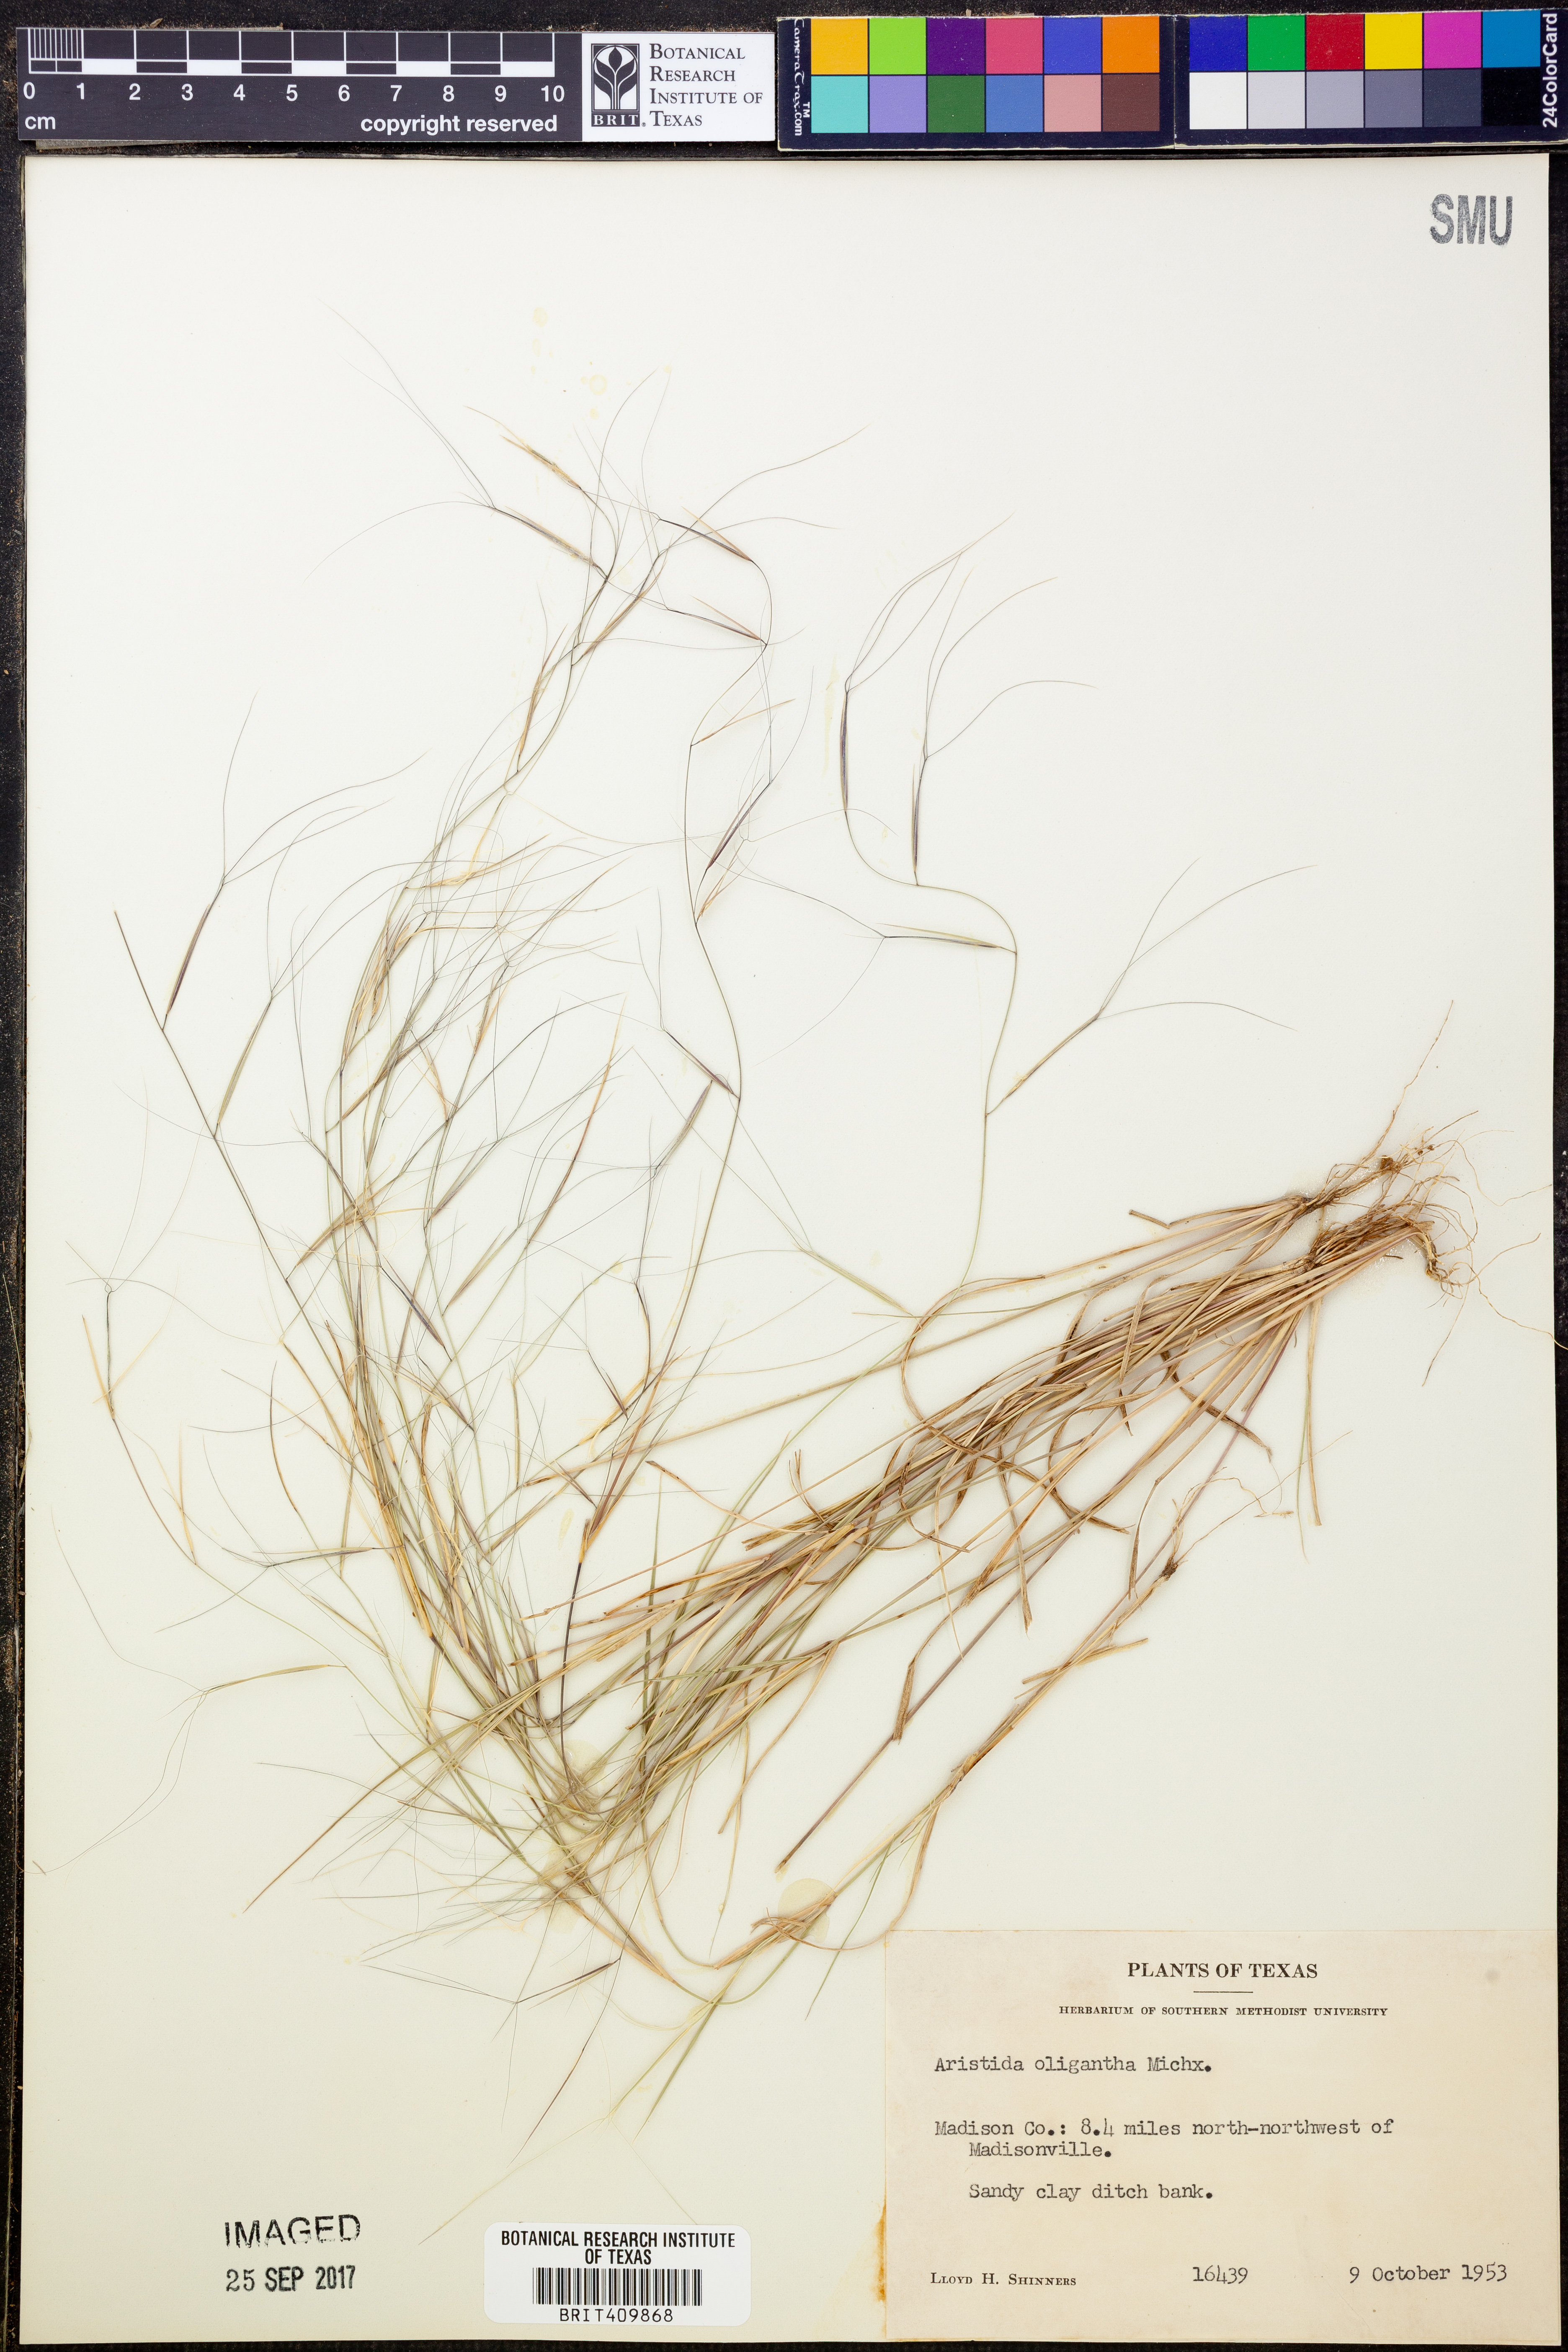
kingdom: Plantae
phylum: Tracheophyta
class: Liliopsida
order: Poales
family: Poaceae
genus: Aristida
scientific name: Aristida oligantha
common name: Few-flowered aristida
